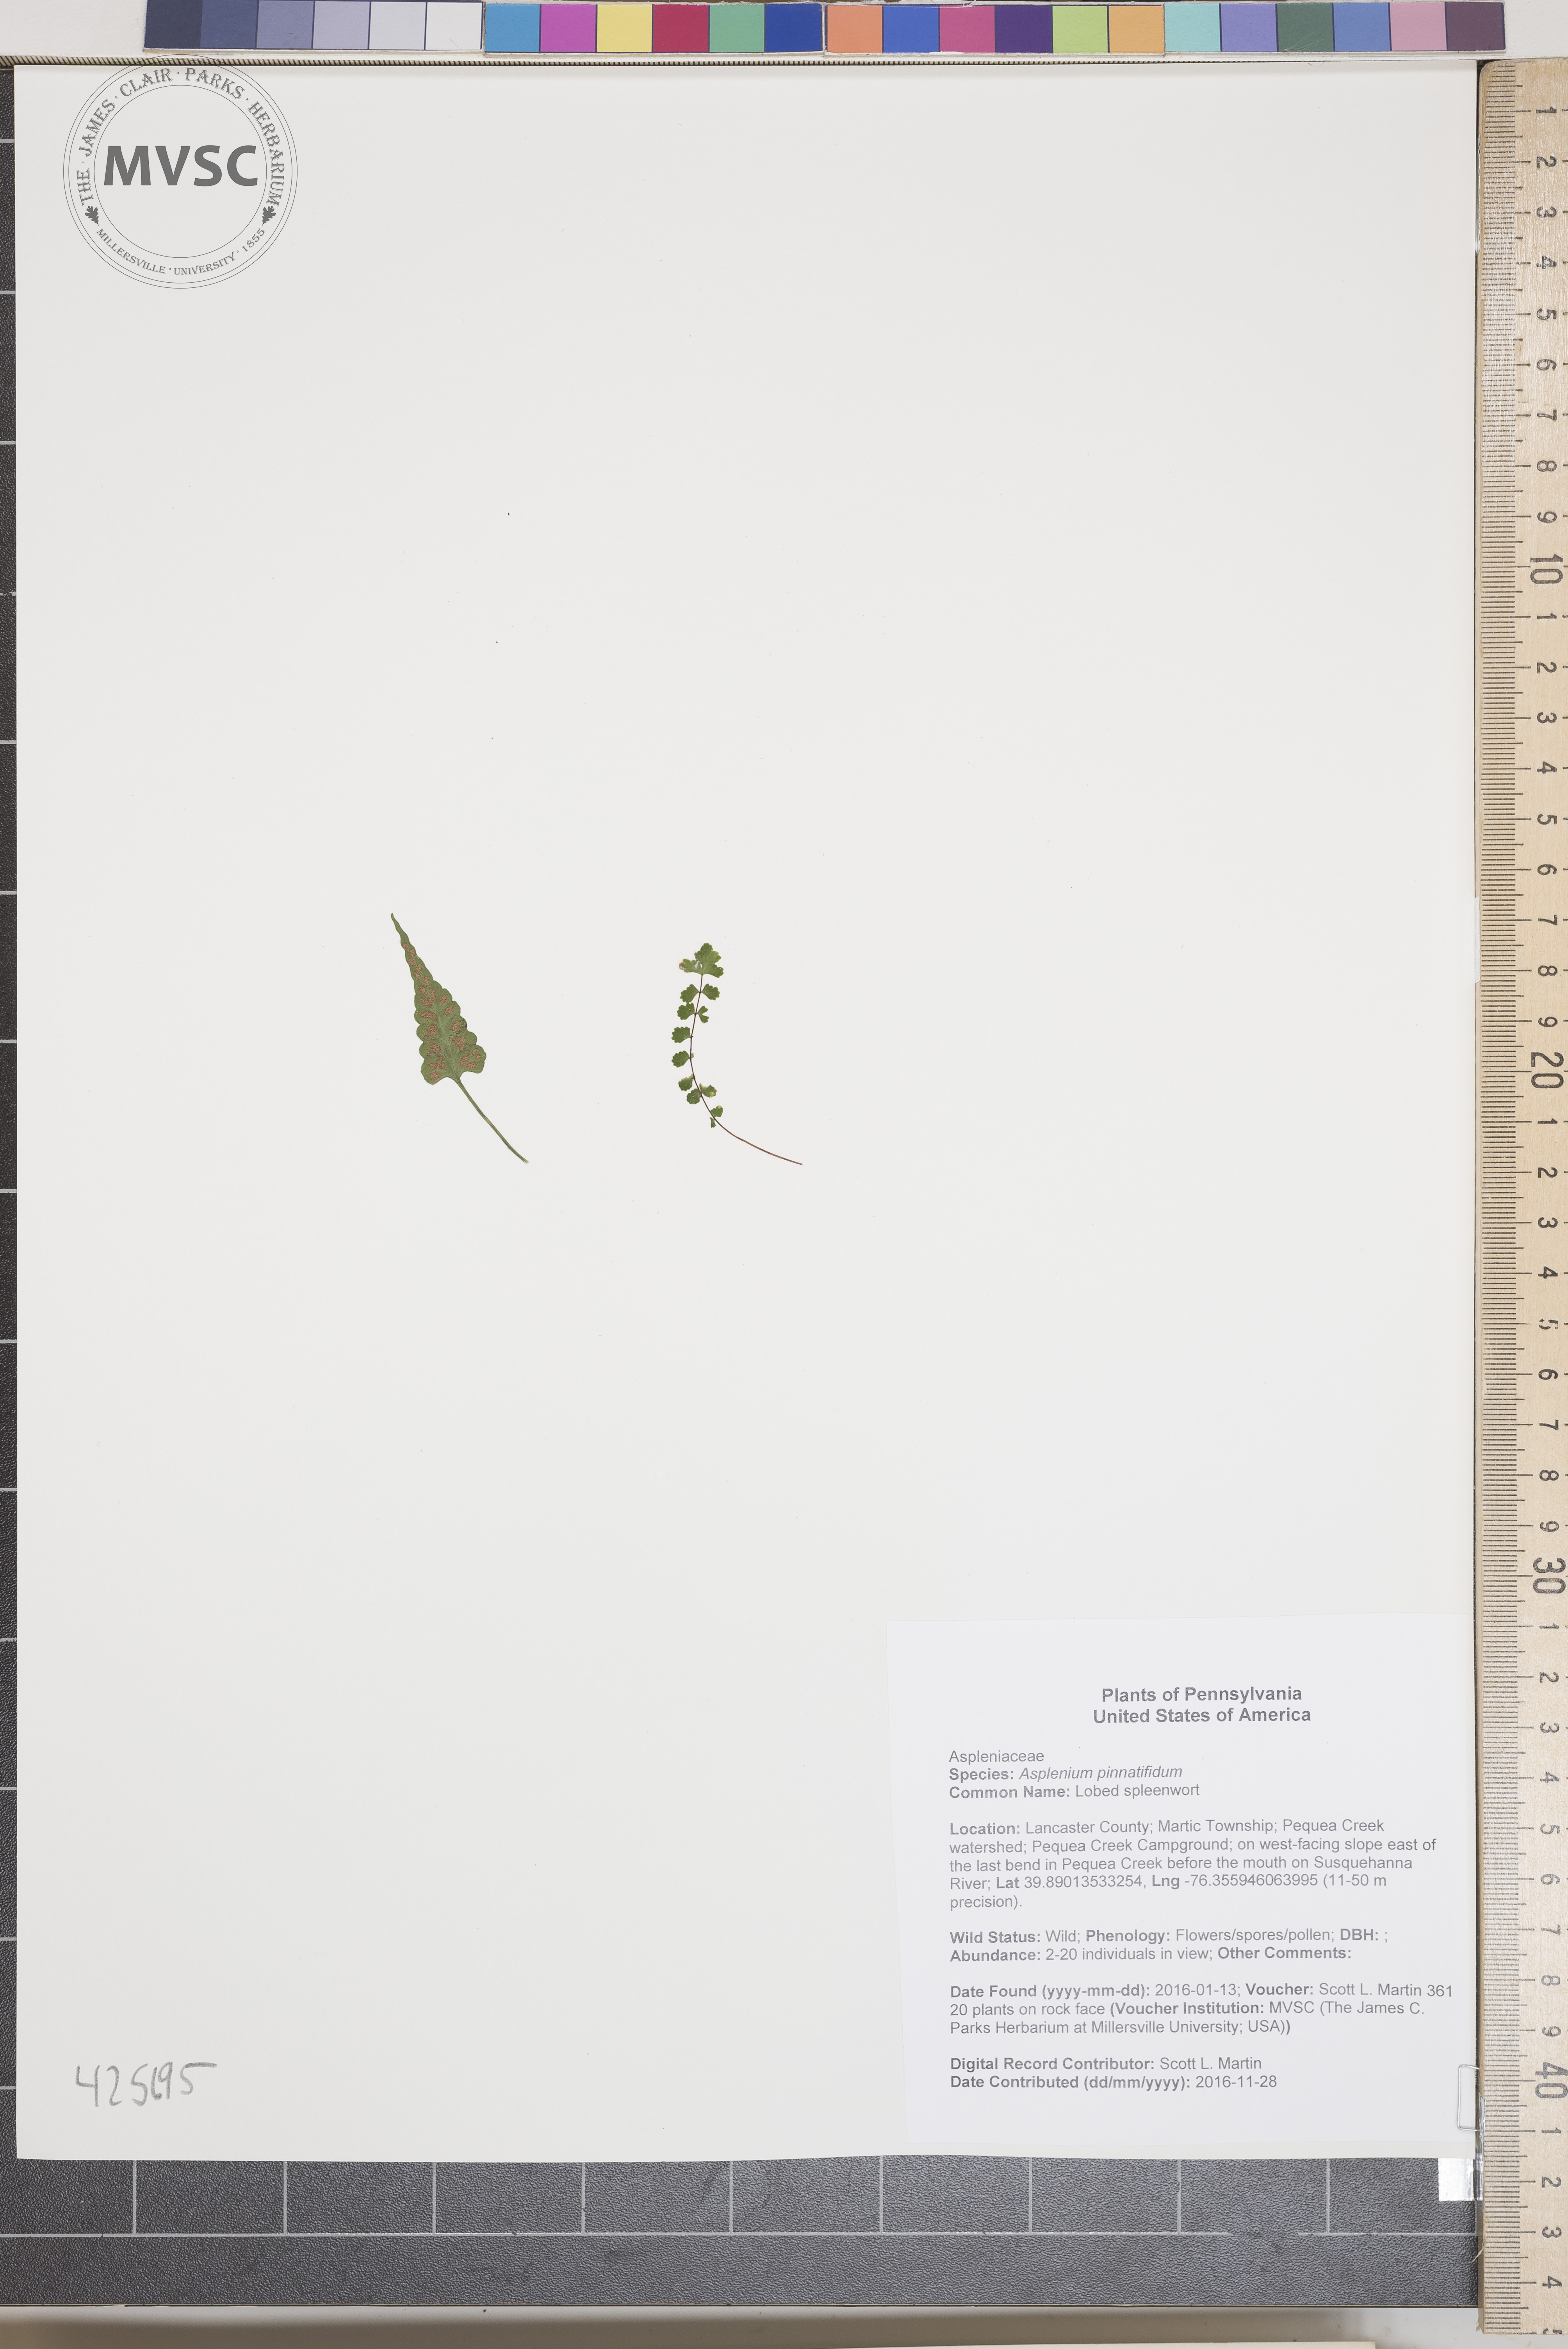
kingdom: Plantae
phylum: Tracheophyta
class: Polypodiopsida
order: Polypodiales
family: Aspleniaceae
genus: Asplenium
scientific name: Asplenium pinnatifidum
